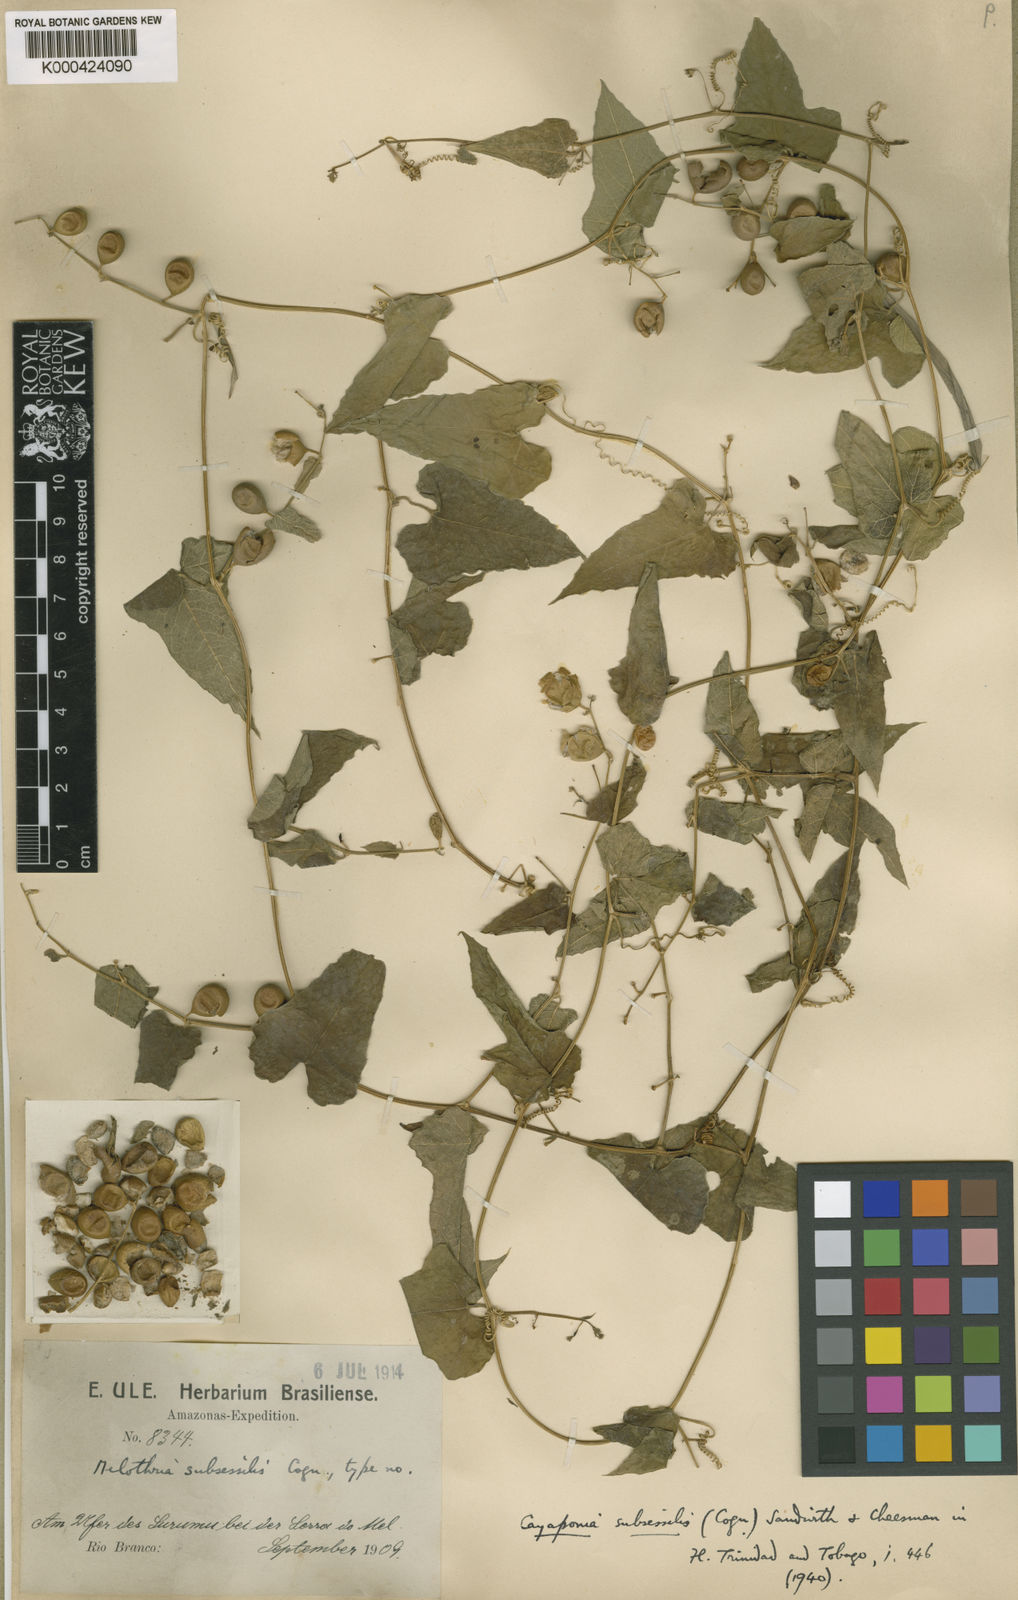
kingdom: Plantae
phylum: Tracheophyta
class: Magnoliopsida
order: Cucurbitales
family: Cucurbitaceae
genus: Cayaponia
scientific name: Cayaponia triangularis
